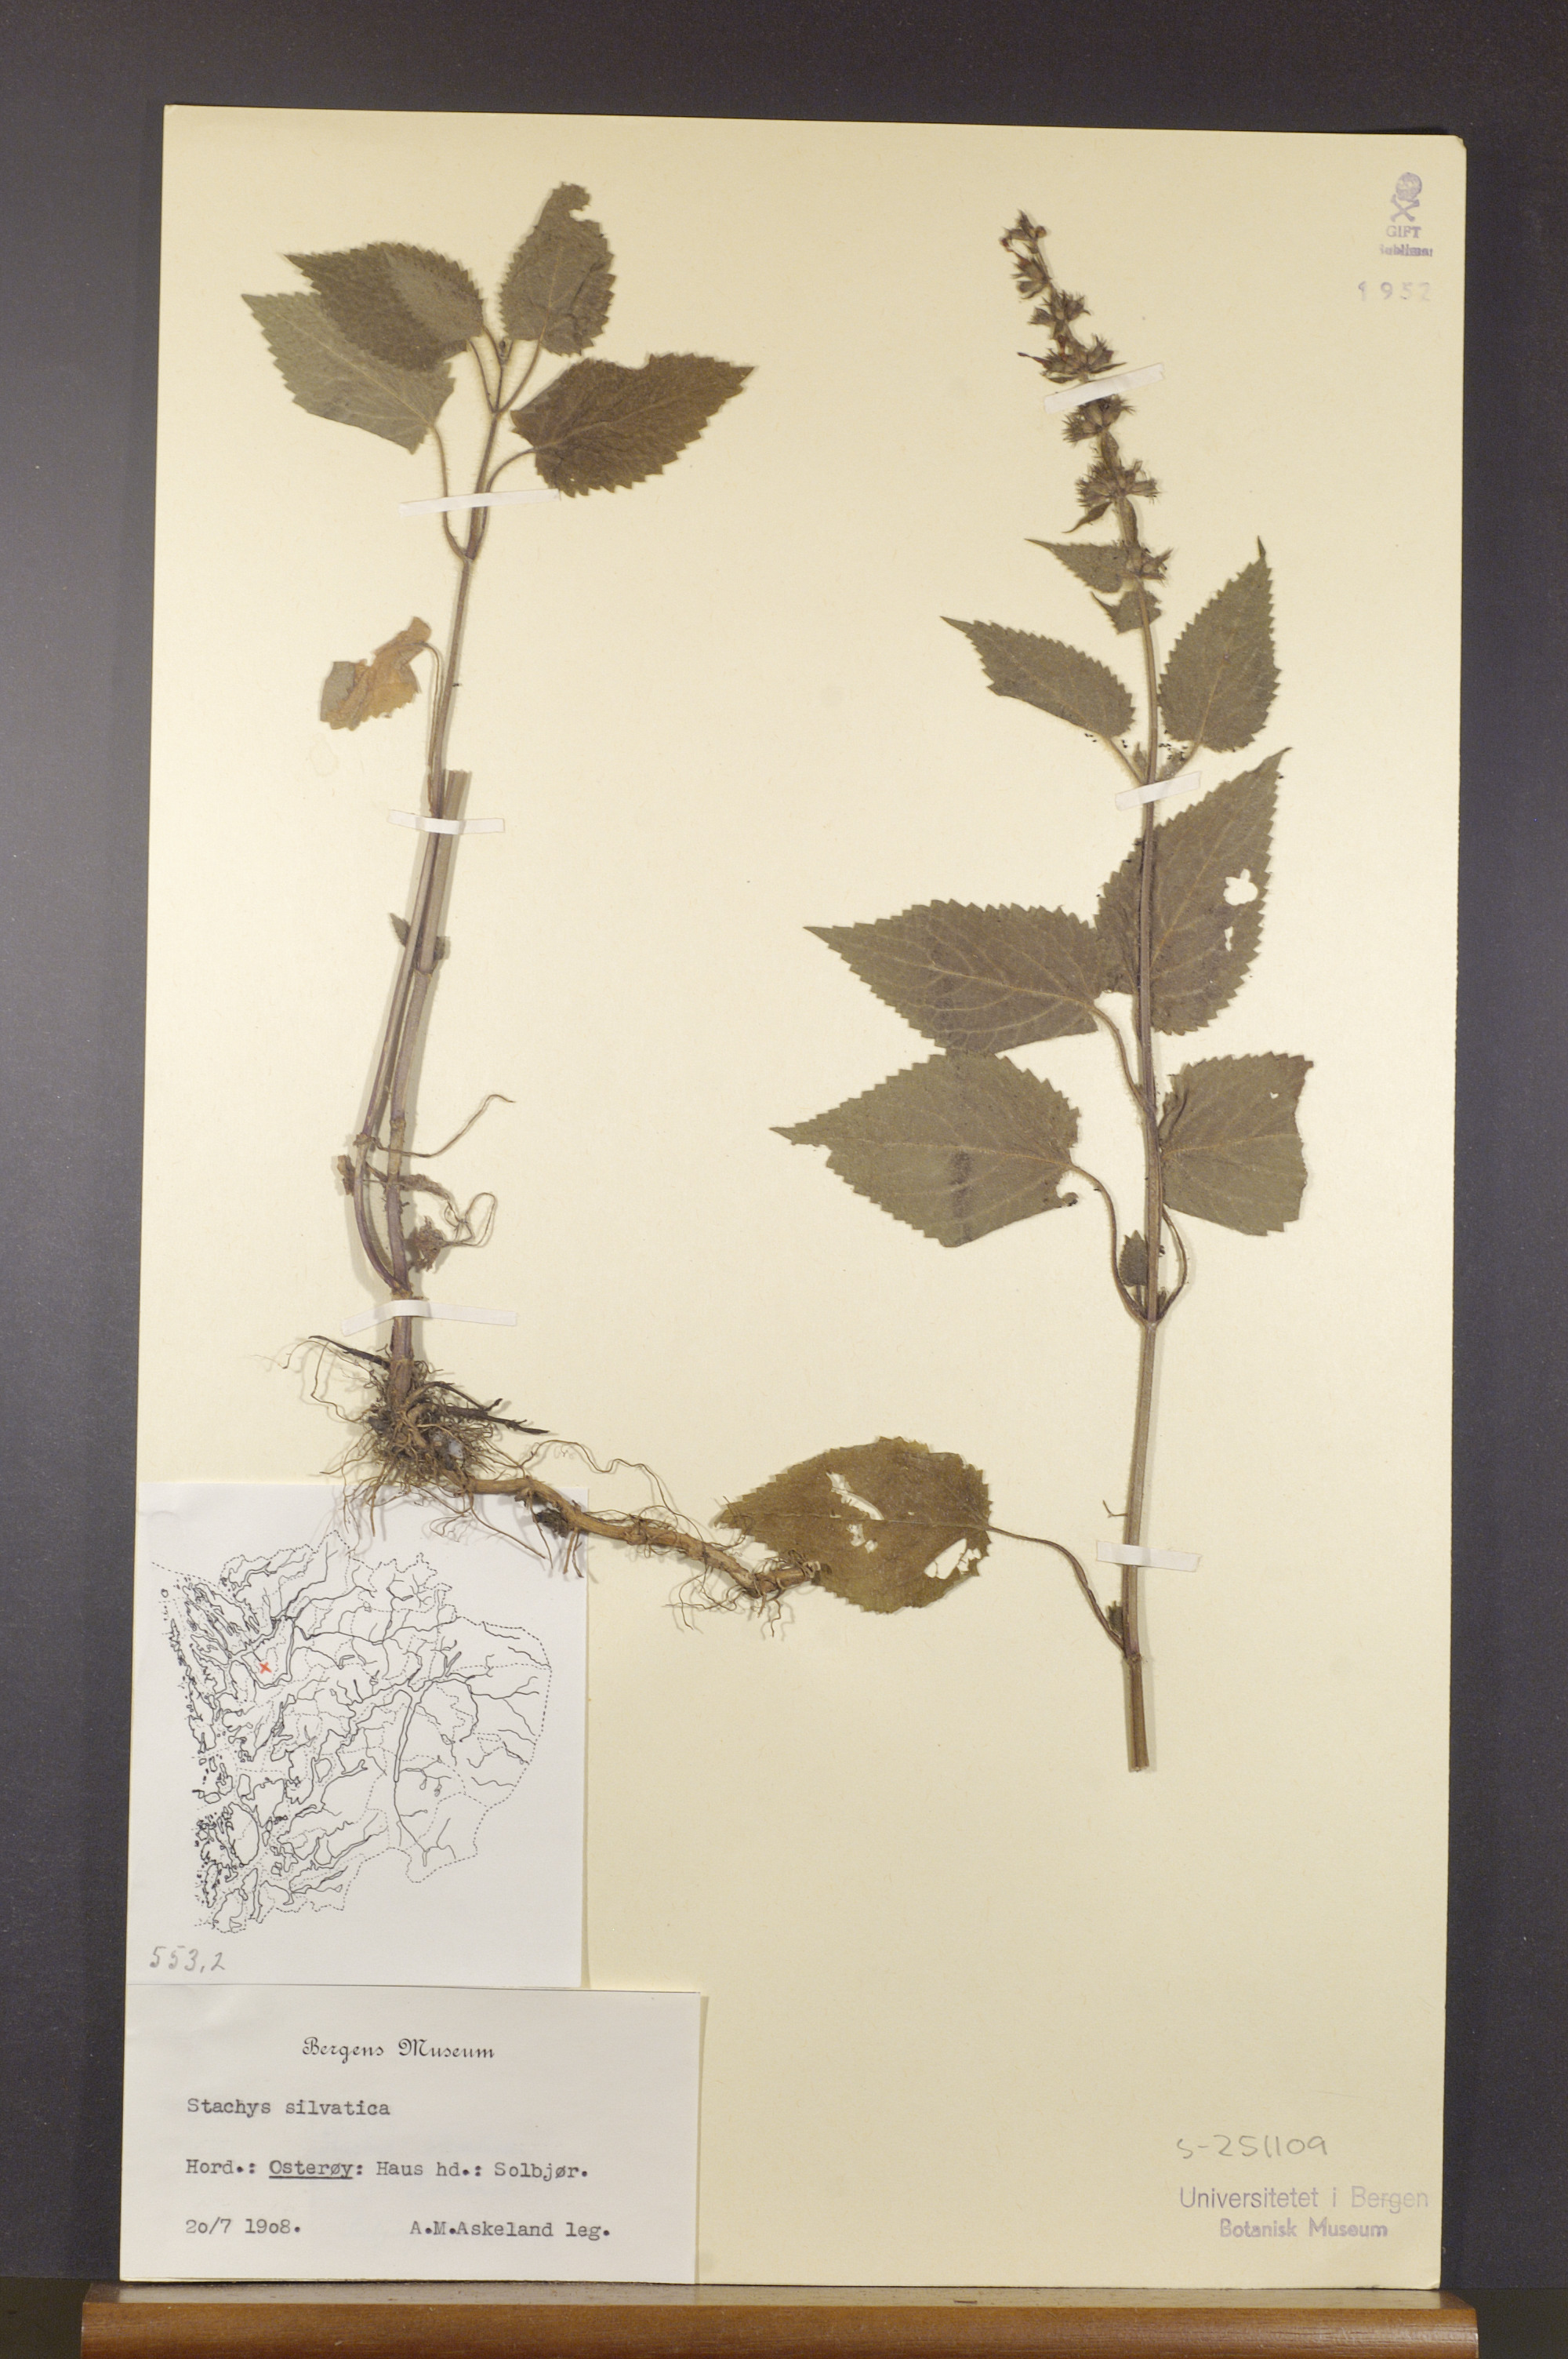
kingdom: Plantae
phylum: Tracheophyta
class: Magnoliopsida
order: Lamiales
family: Lamiaceae
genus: Stachys
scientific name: Stachys sylvatica
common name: Hedge woundwort
